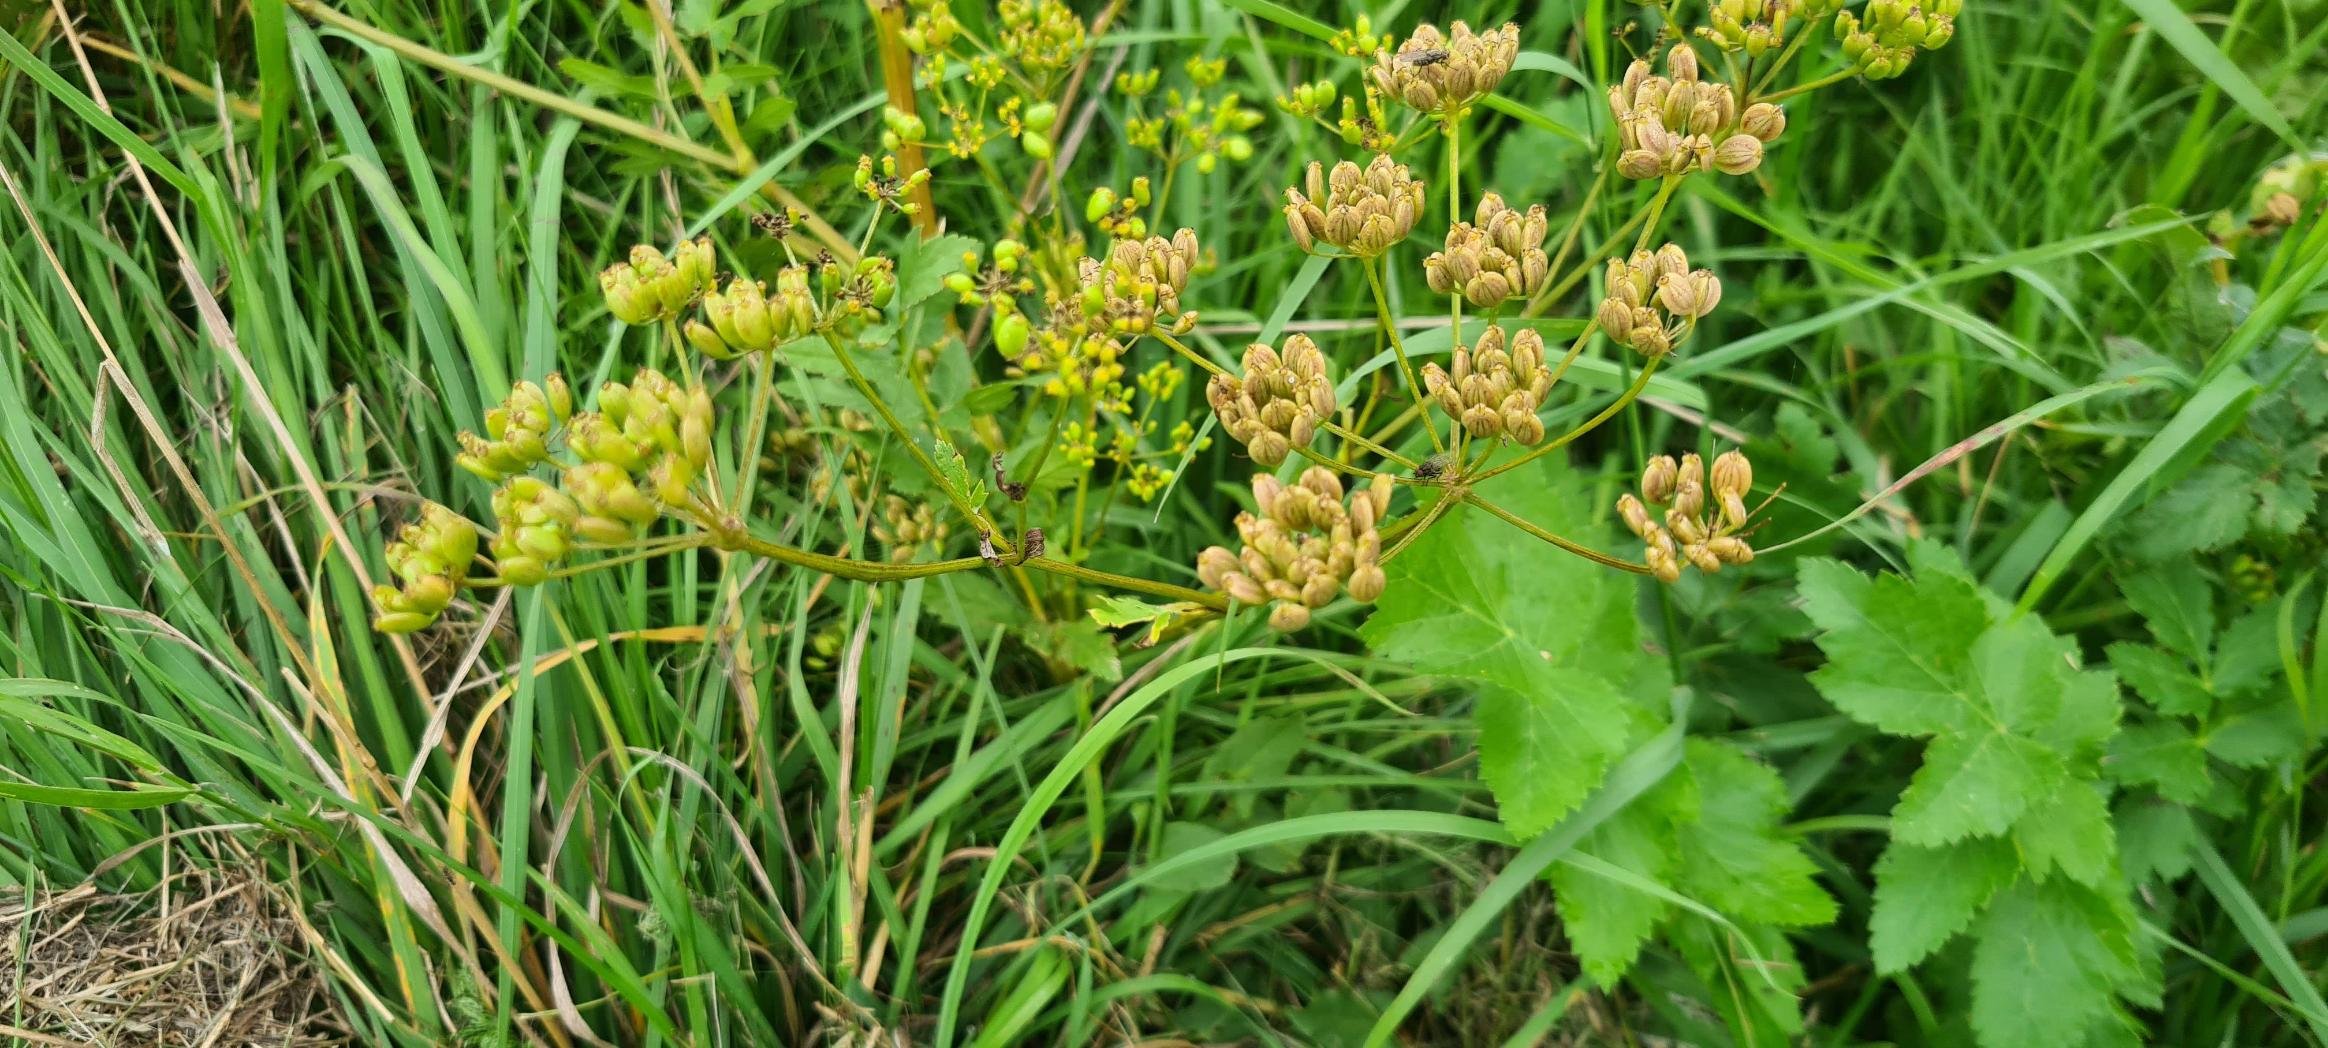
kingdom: Plantae
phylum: Tracheophyta
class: Magnoliopsida
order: Apiales
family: Apiaceae
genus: Pastinaca
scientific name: Pastinaca sativa
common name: Have-pastinak
